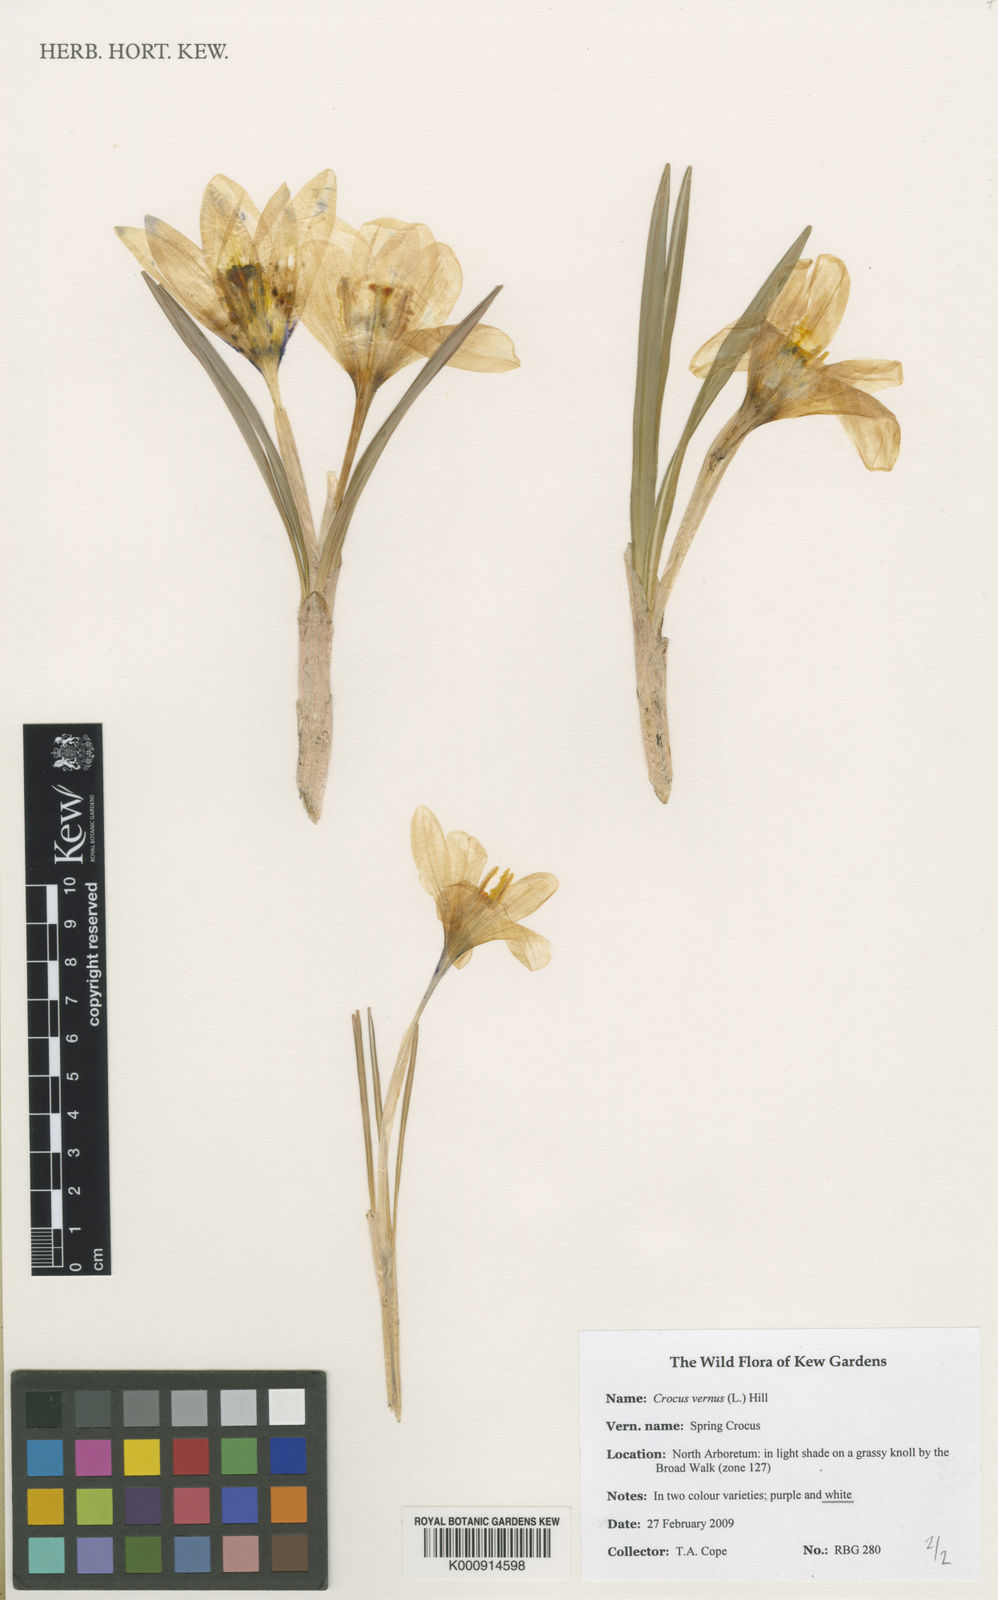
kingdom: Plantae
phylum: Tracheophyta
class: Liliopsida
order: Asparagales
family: Iridaceae
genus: Crocus
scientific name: Crocus vernus
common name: Spring crocus
